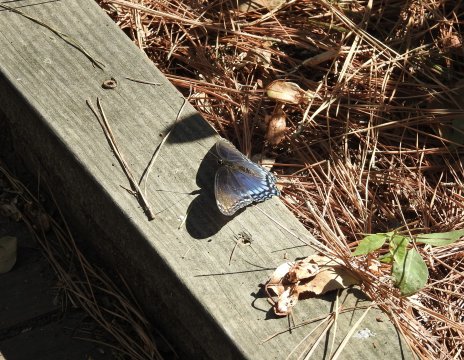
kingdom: Animalia
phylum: Arthropoda
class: Insecta
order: Lepidoptera
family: Nymphalidae
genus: Limenitis
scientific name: Limenitis arthemis
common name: Red-spotted Admiral
